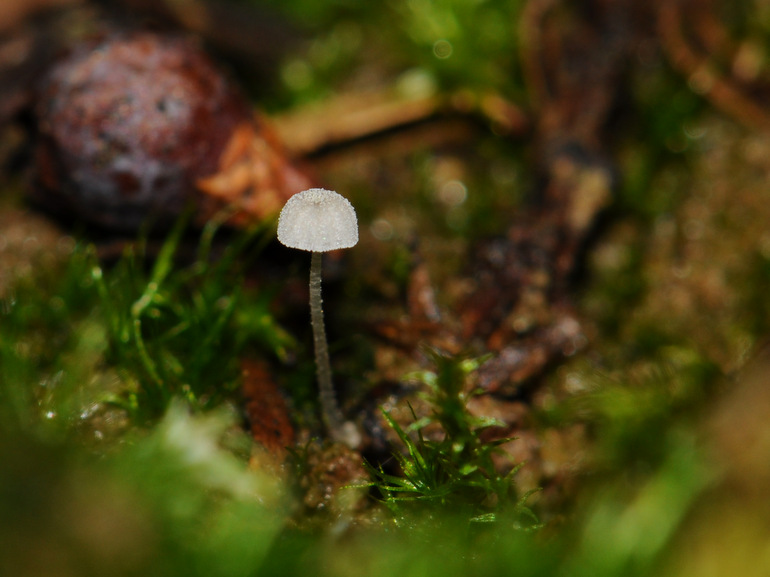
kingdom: Fungi
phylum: Basidiomycota
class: Agaricomycetes
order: Agaricales
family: Mycenaceae
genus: Mycena
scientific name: Mycena tenerrima
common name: pudret huesvamp
